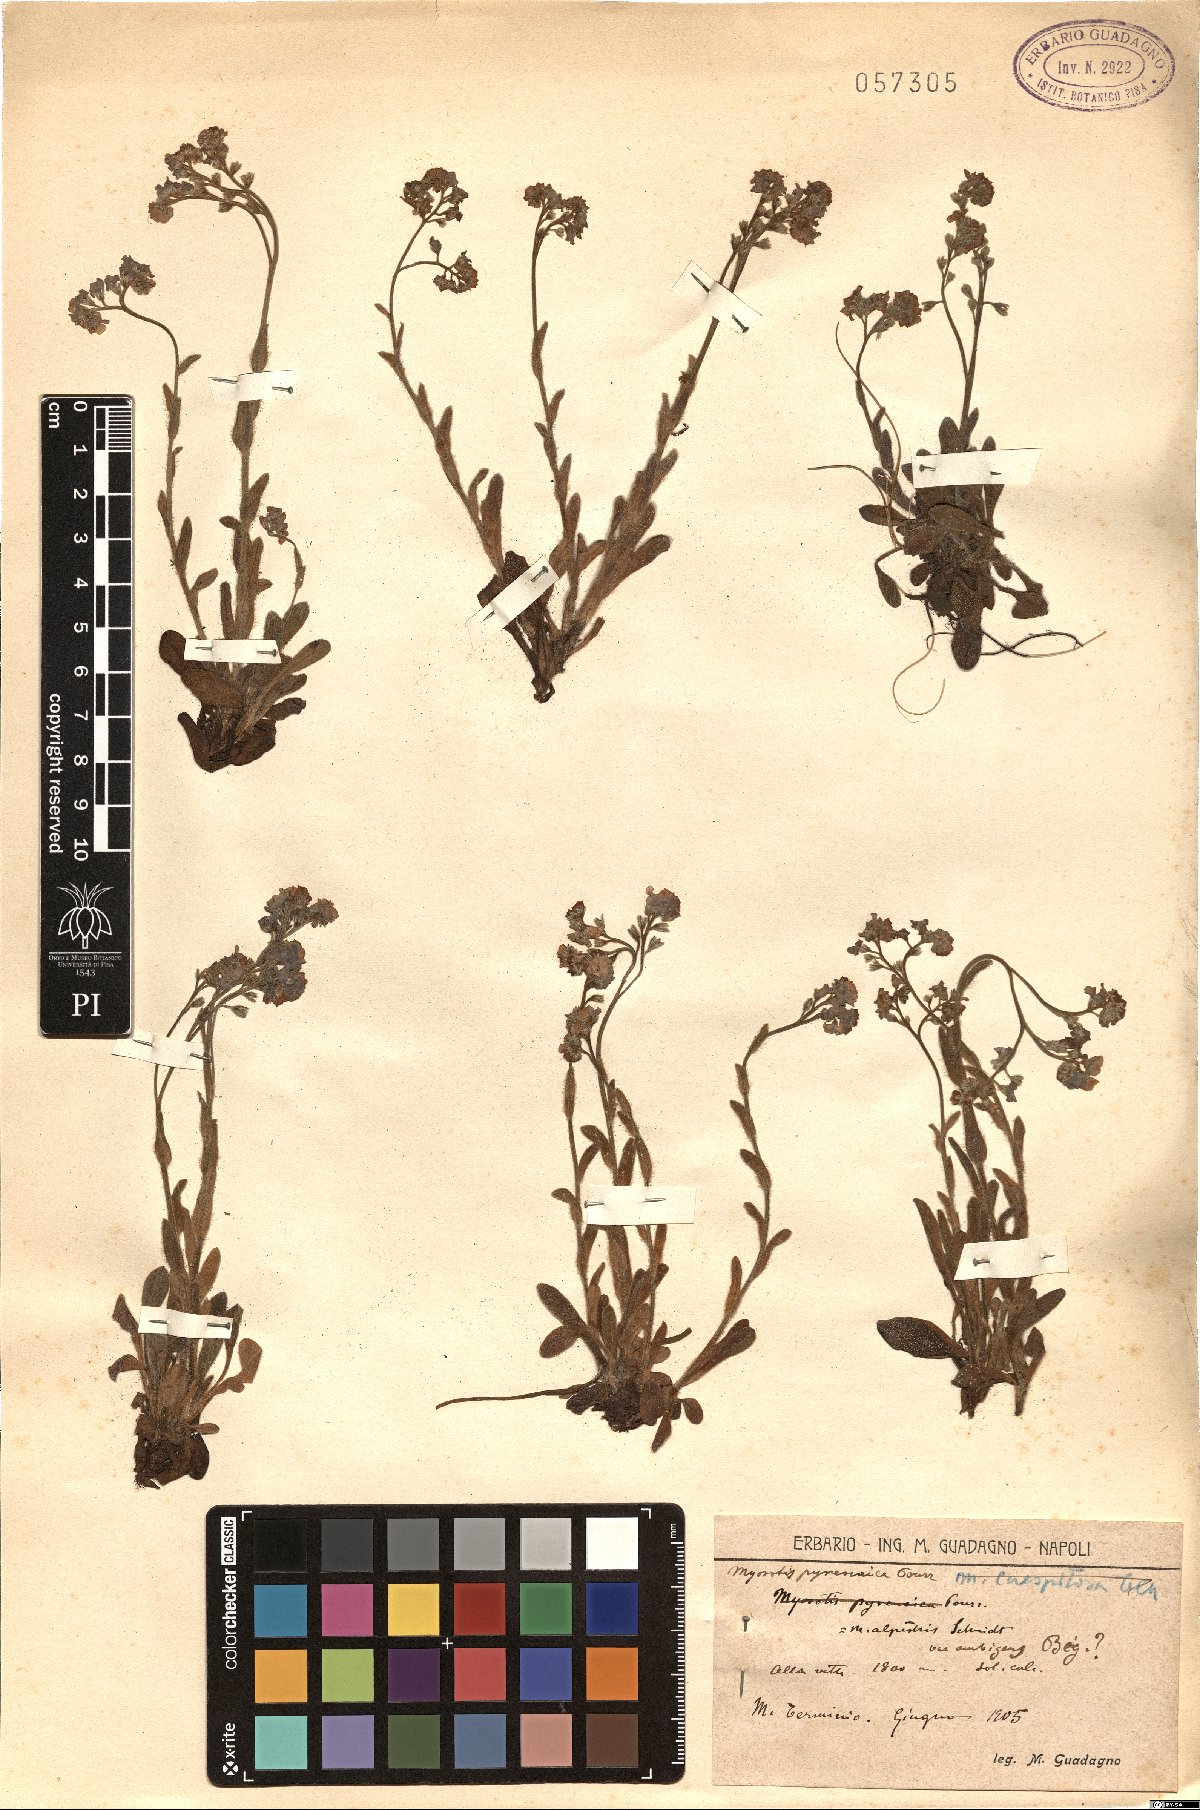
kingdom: Plantae
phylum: Tracheophyta
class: Magnoliopsida
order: Boraginales
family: Boraginaceae
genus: Myosotis
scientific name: Myosotis ambigens
